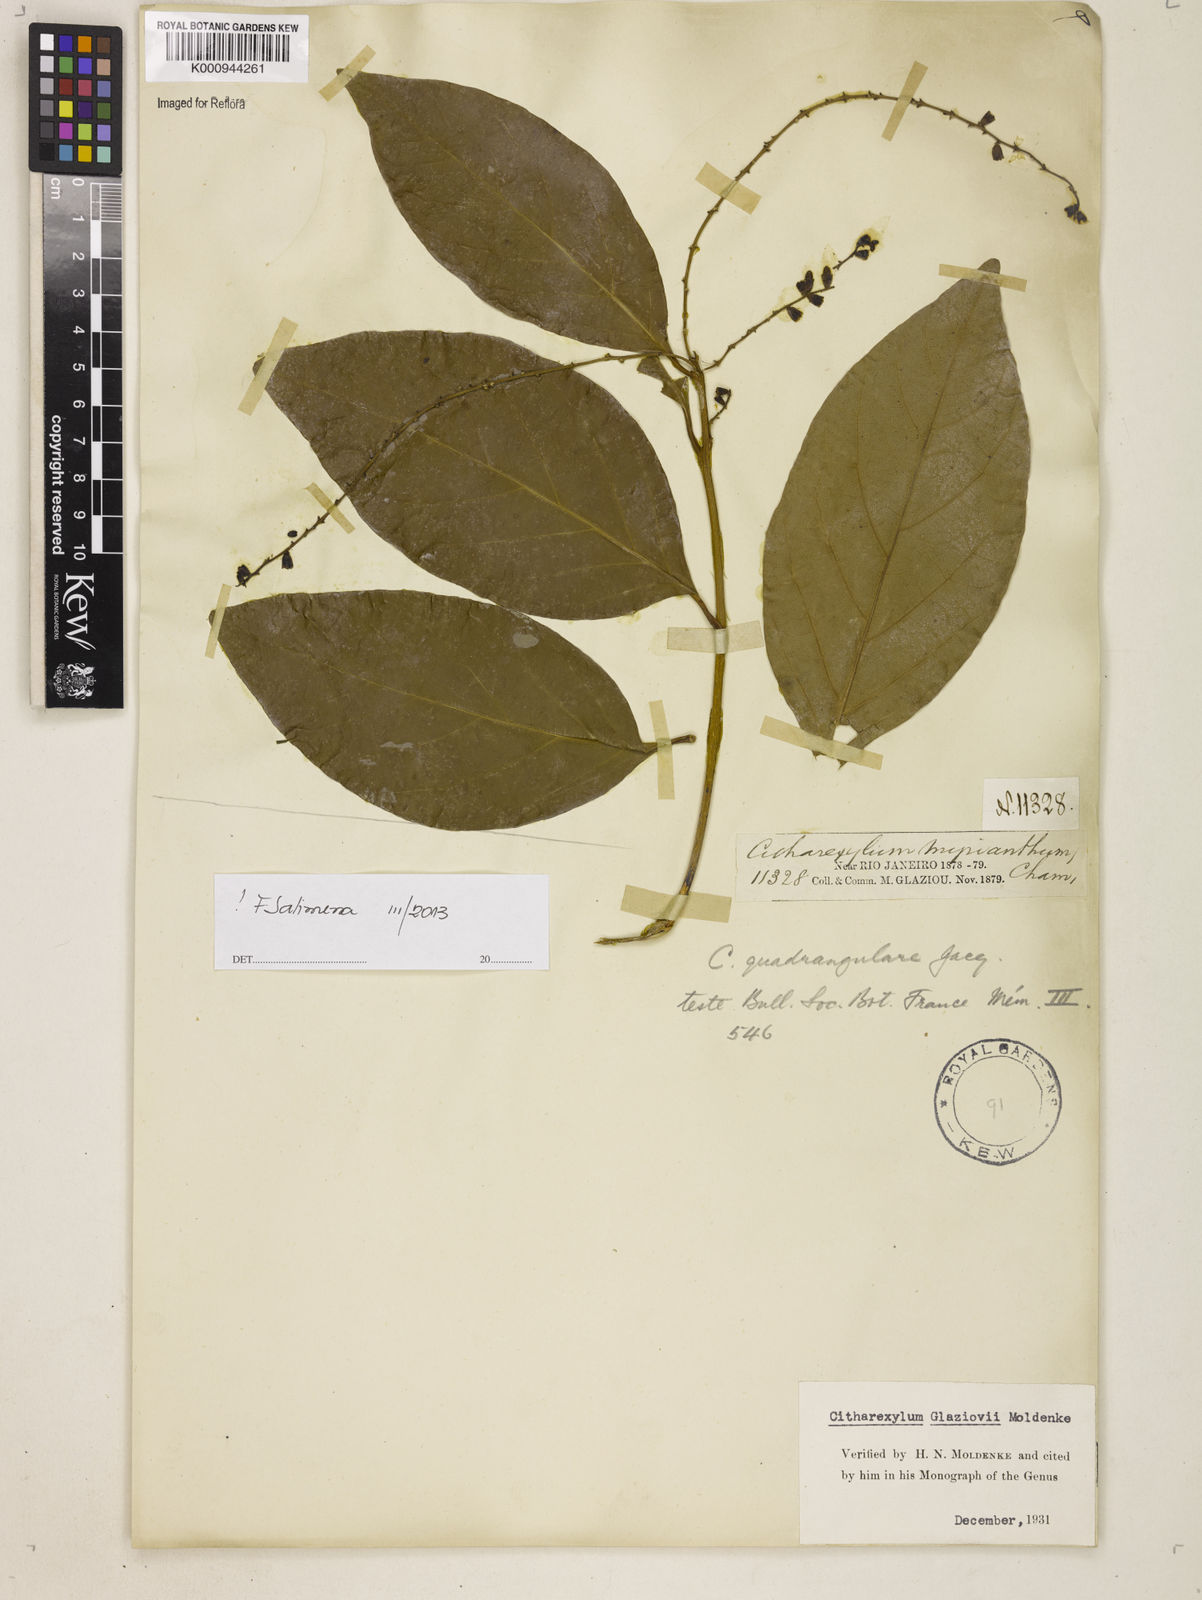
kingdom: Plantae
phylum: Tracheophyta
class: Magnoliopsida
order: Lamiales
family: Verbenaceae
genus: Citharexylum
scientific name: Citharexylum myrianthum
